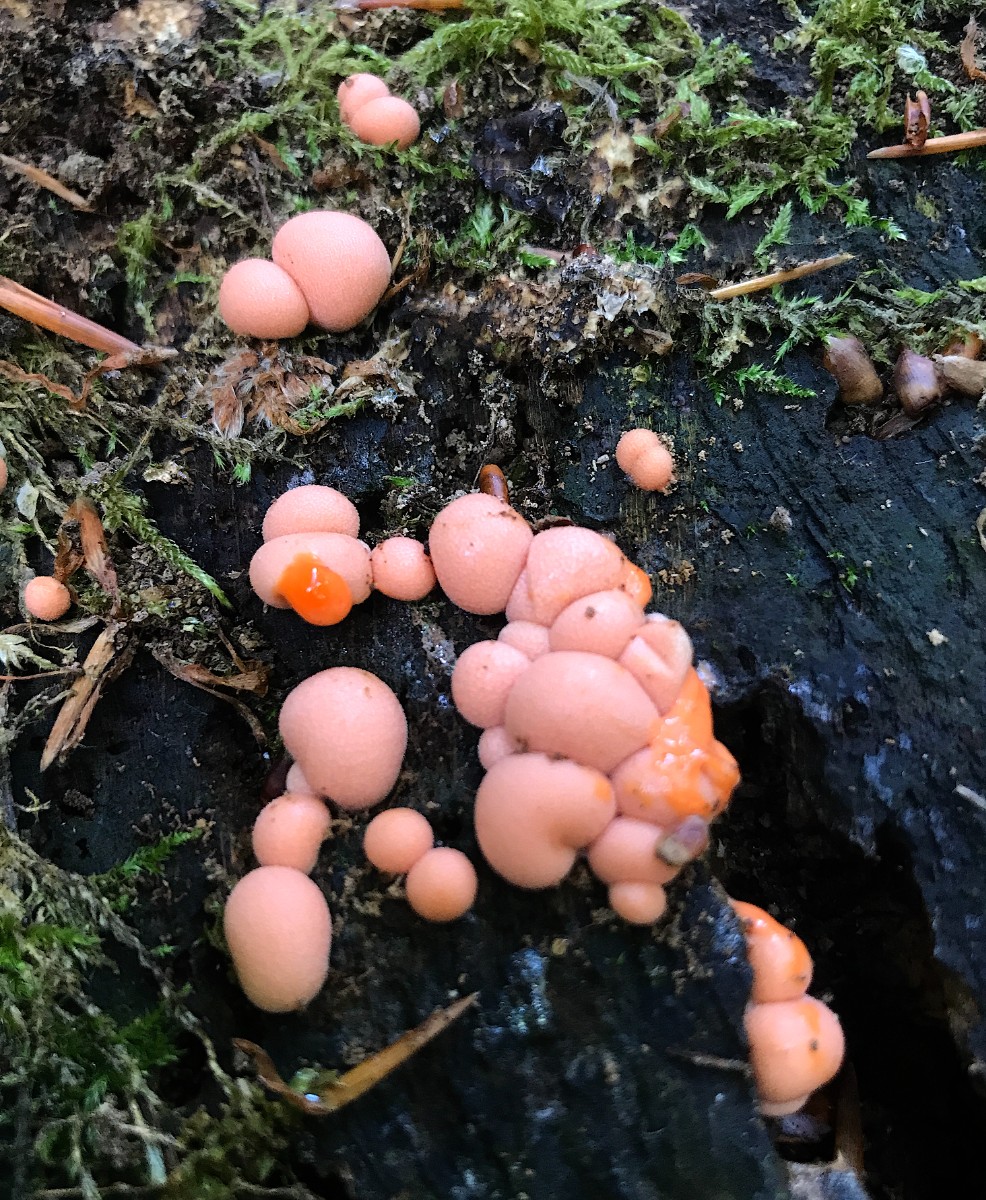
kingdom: Protozoa
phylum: Mycetozoa
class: Myxomycetes
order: Cribrariales
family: Tubiferaceae
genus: Lycogala
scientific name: Lycogala epidendrum
